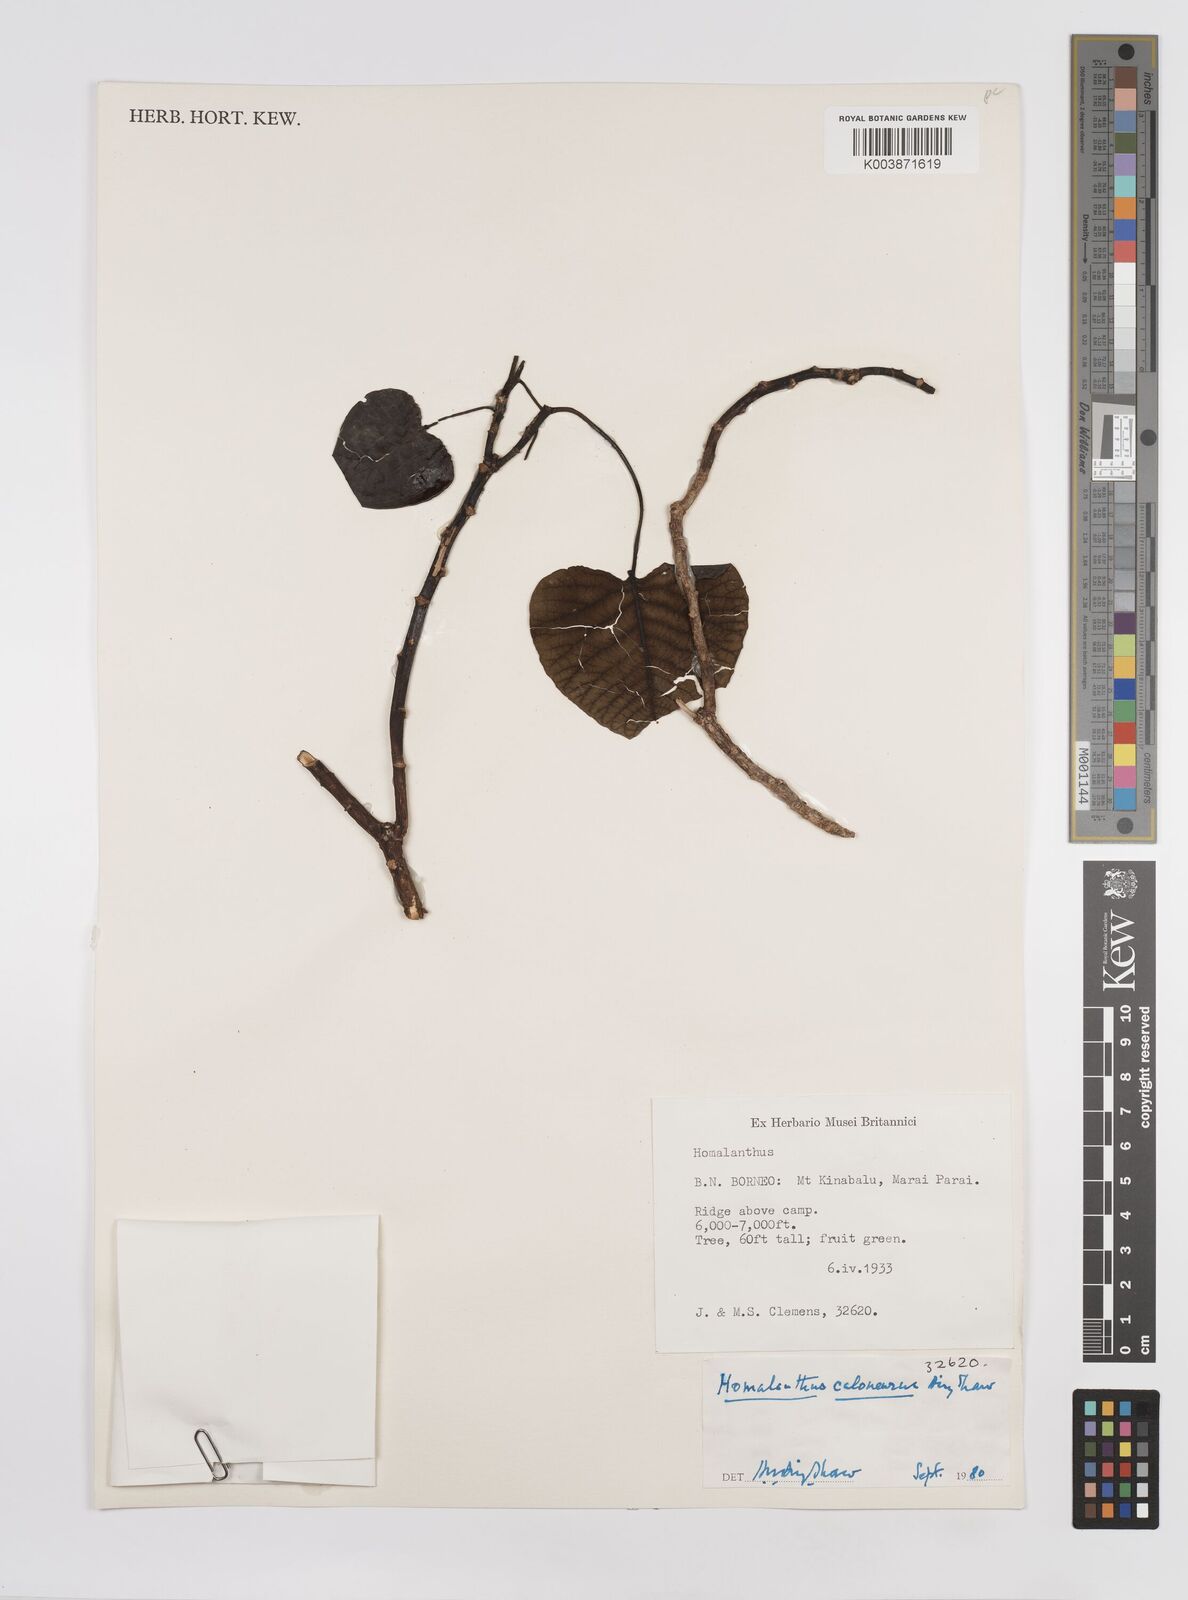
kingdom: Plantae
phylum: Tracheophyta
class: Magnoliopsida
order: Malpighiales
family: Euphorbiaceae
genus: Homalanthus
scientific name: Homalanthus caloneurus
